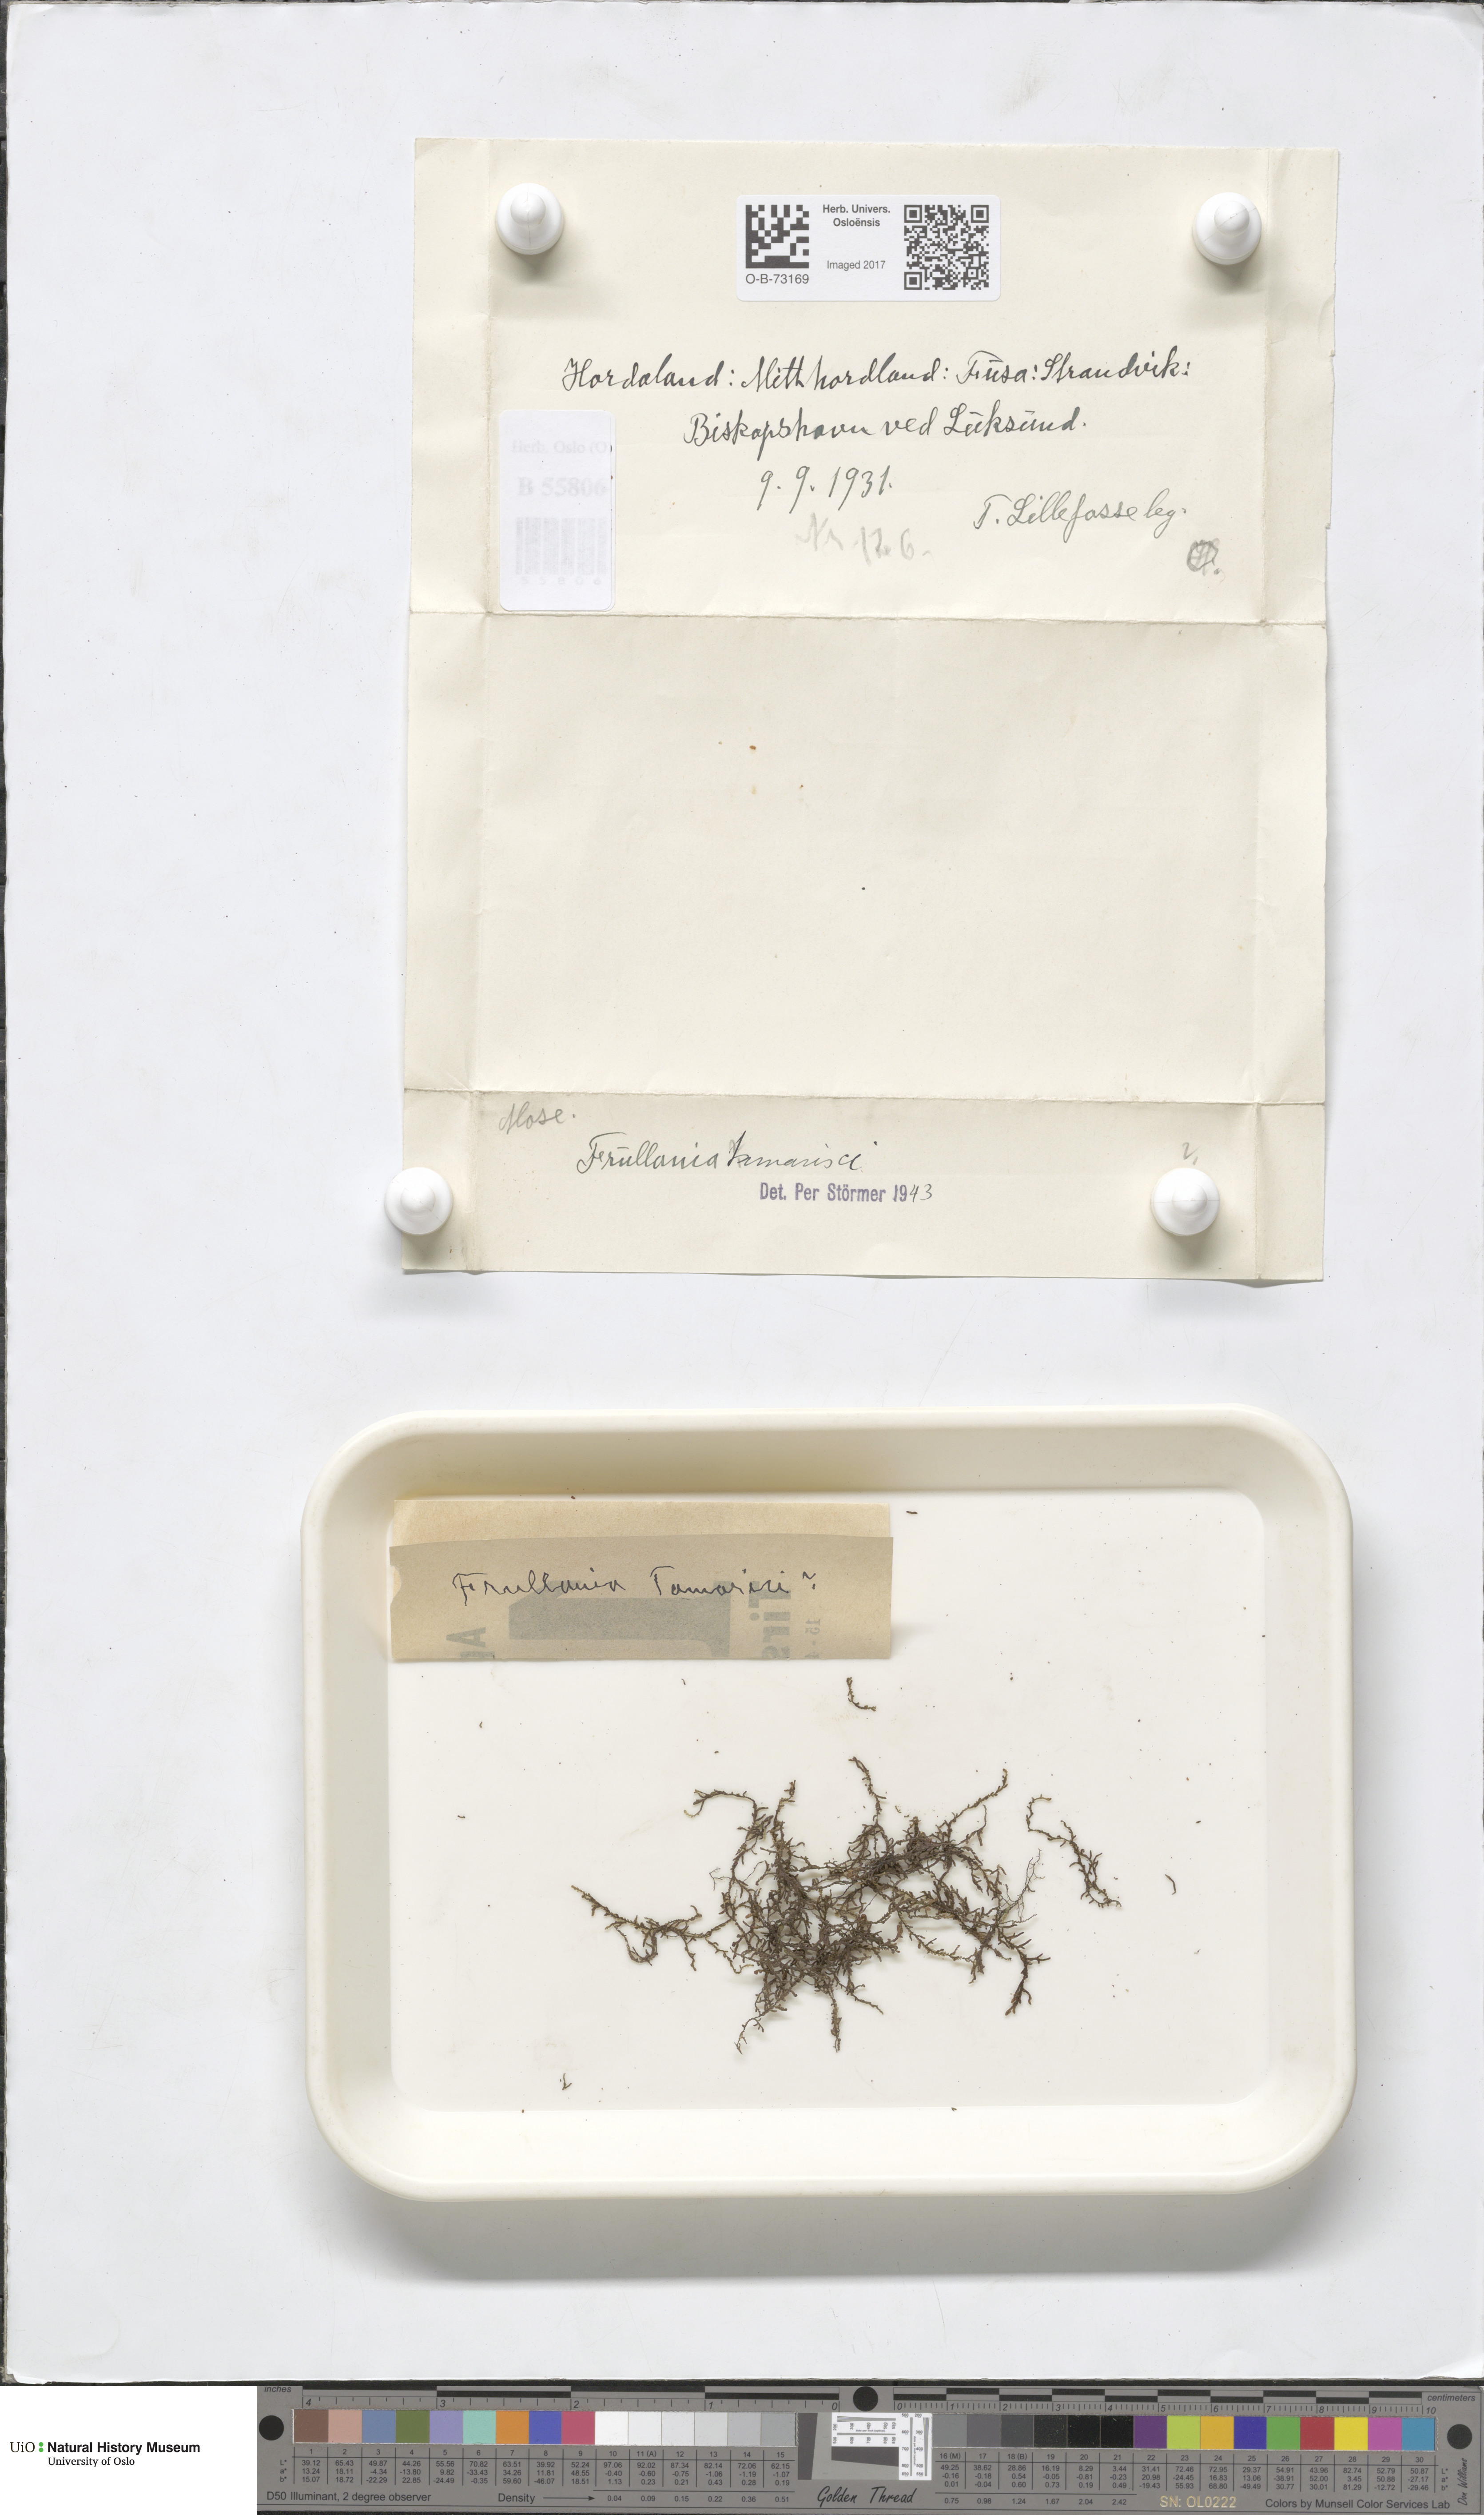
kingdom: Plantae
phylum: Marchantiophyta
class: Jungermanniopsida
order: Porellales
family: Frullaniaceae
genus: Frullania
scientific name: Frullania tamarisci
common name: Tamarisk scalewort
